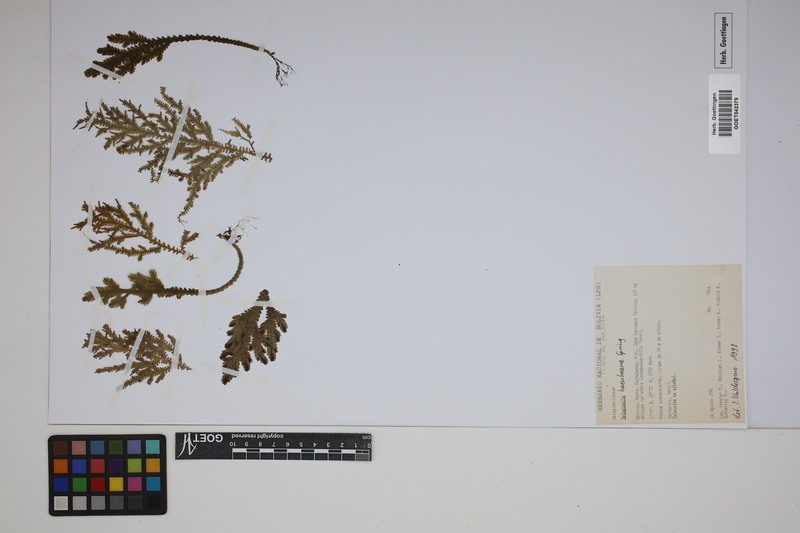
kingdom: Plantae
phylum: Tracheophyta
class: Lycopodiopsida
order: Selaginellales
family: Selaginellaceae
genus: Selaginella
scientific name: Selaginella haenkeana
